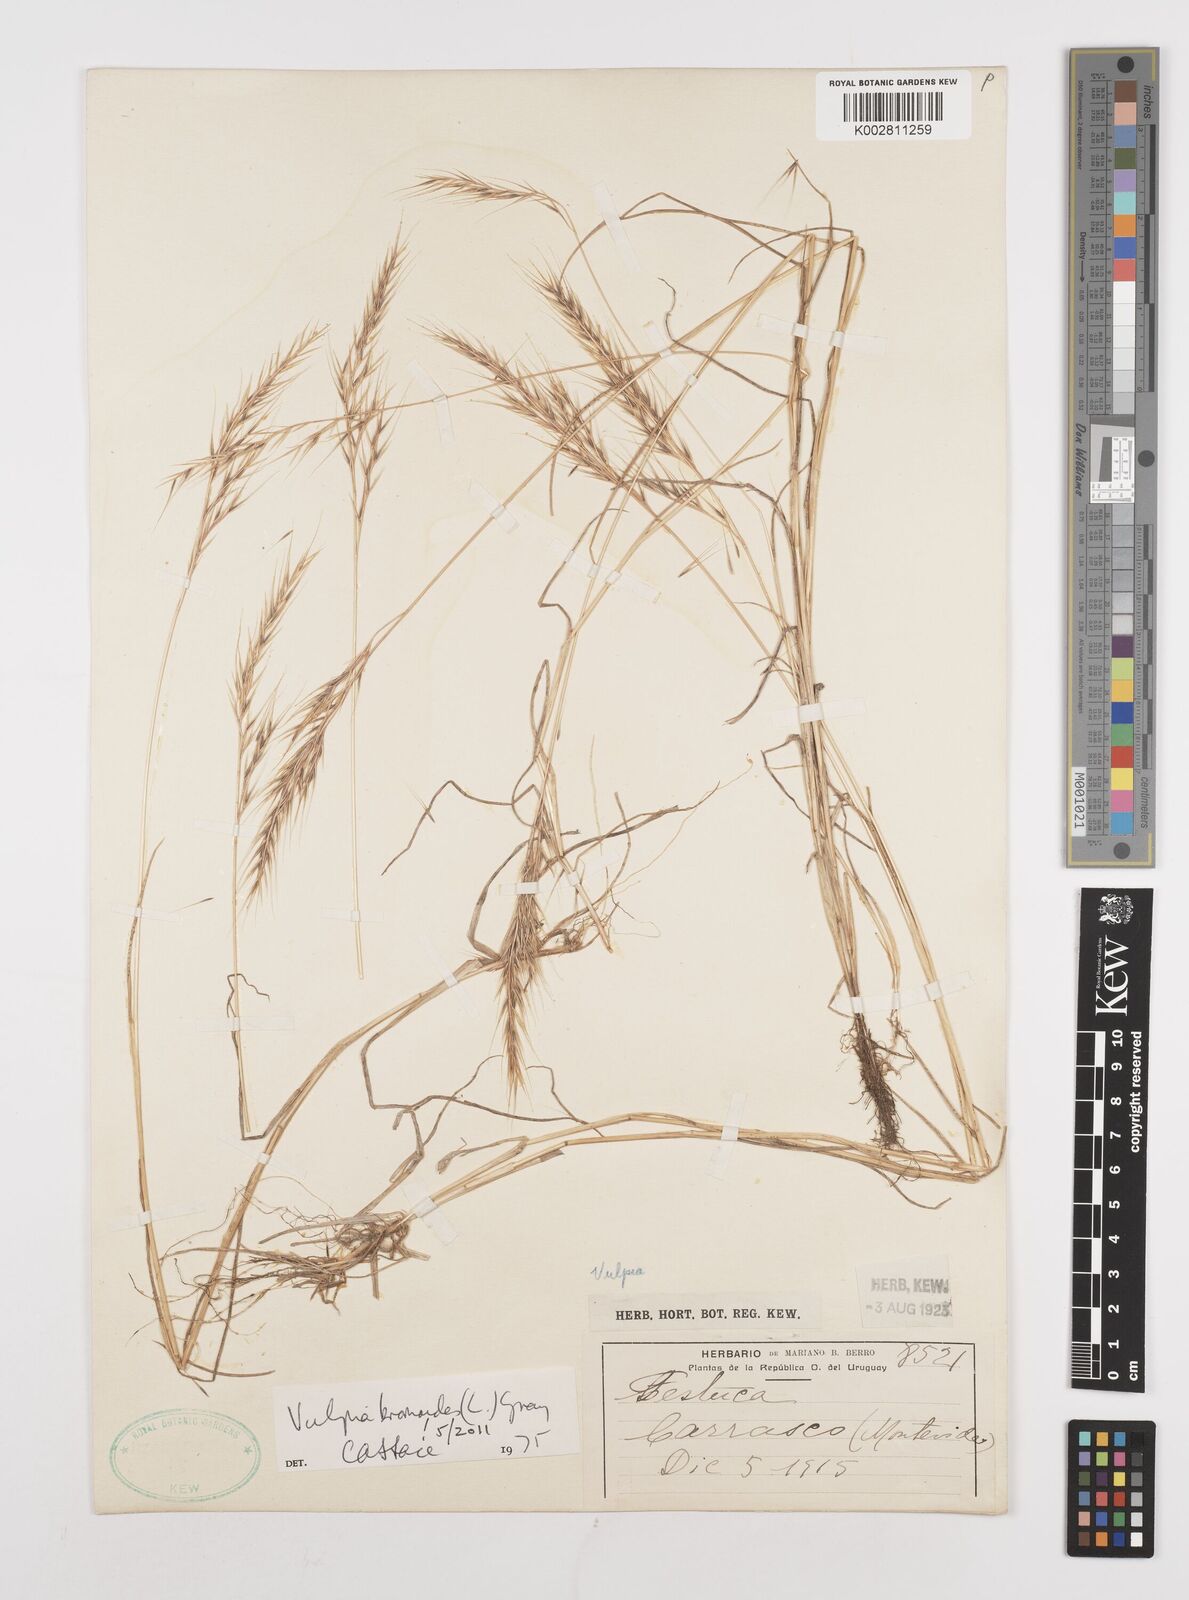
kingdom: Plantae
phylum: Tracheophyta
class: Liliopsida
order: Poales
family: Poaceae
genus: Festuca
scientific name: Festuca bromoides
